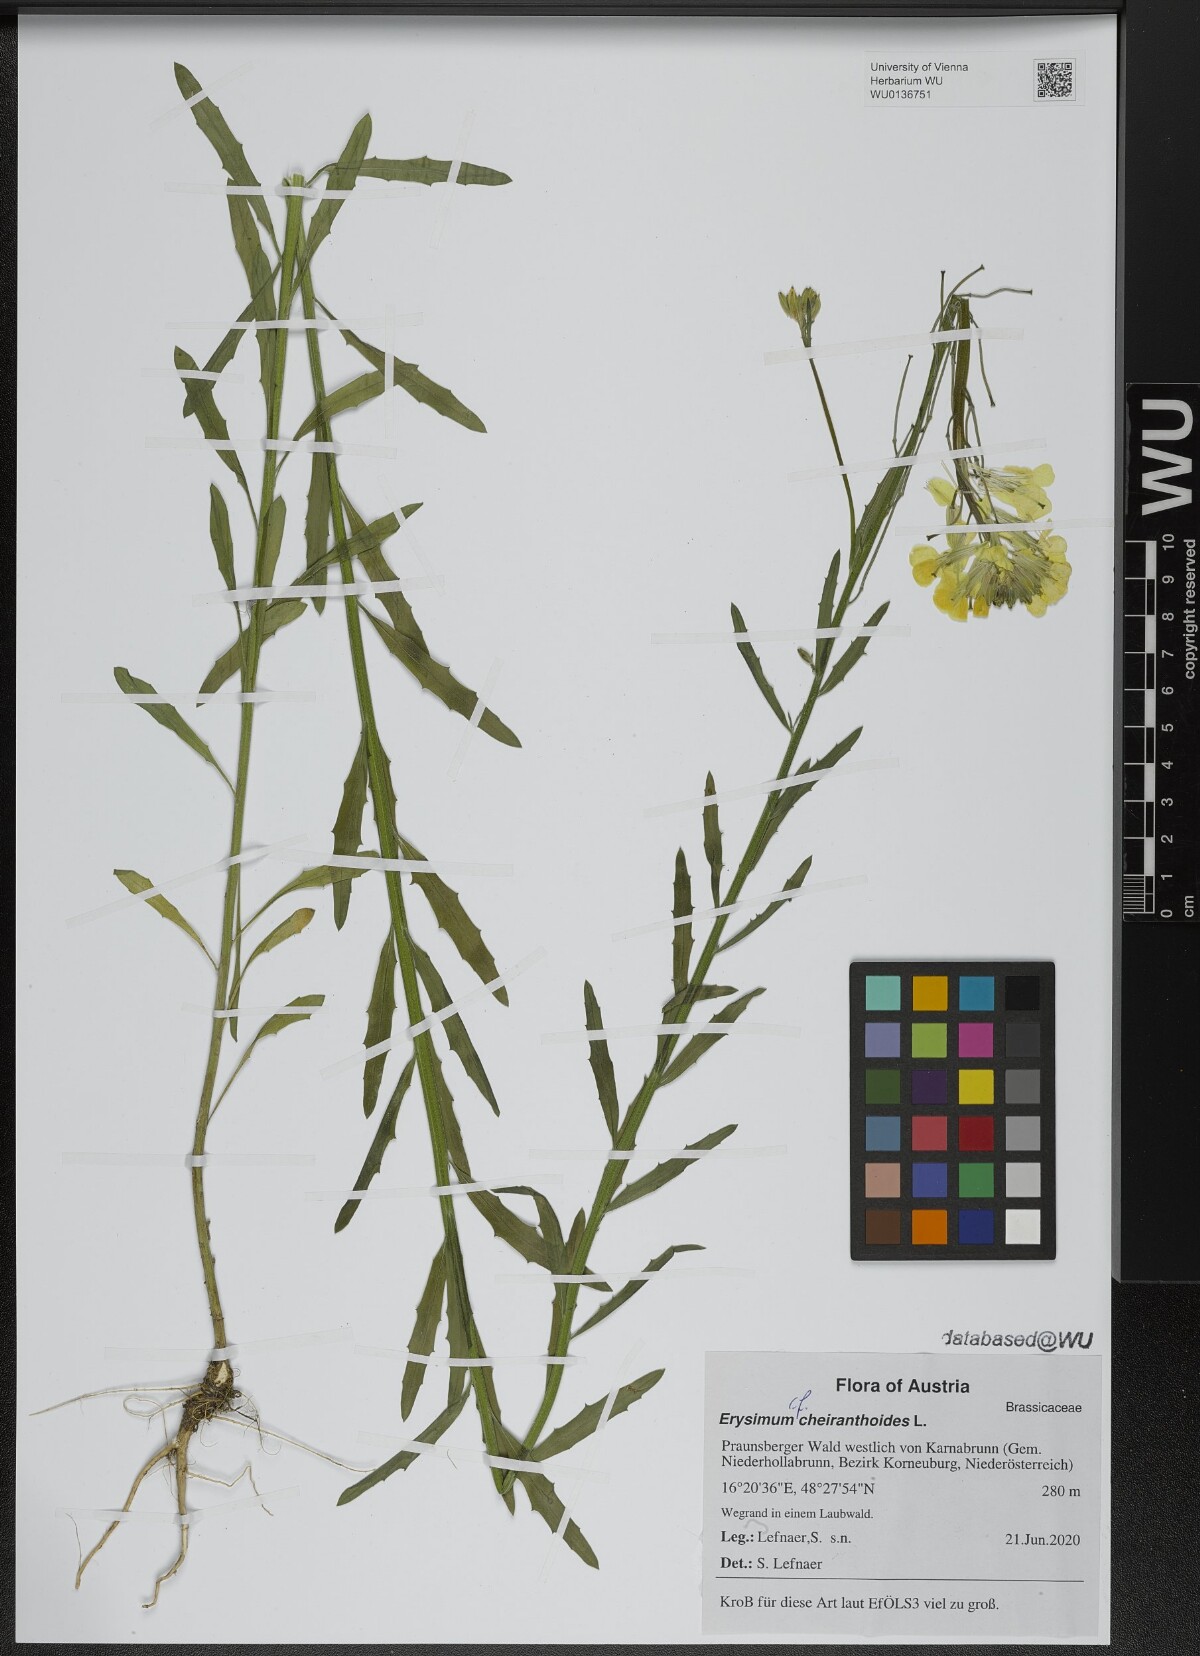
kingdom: Plantae
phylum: Tracheophyta
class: Magnoliopsida
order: Brassicales
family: Brassicaceae
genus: Erysimum
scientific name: Erysimum cheiranthoides
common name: Treacle mustard
